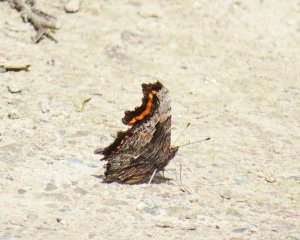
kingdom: Animalia
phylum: Arthropoda
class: Insecta
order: Lepidoptera
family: Nymphalidae
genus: Polygonia
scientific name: Polygonia progne
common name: Gray Comma
